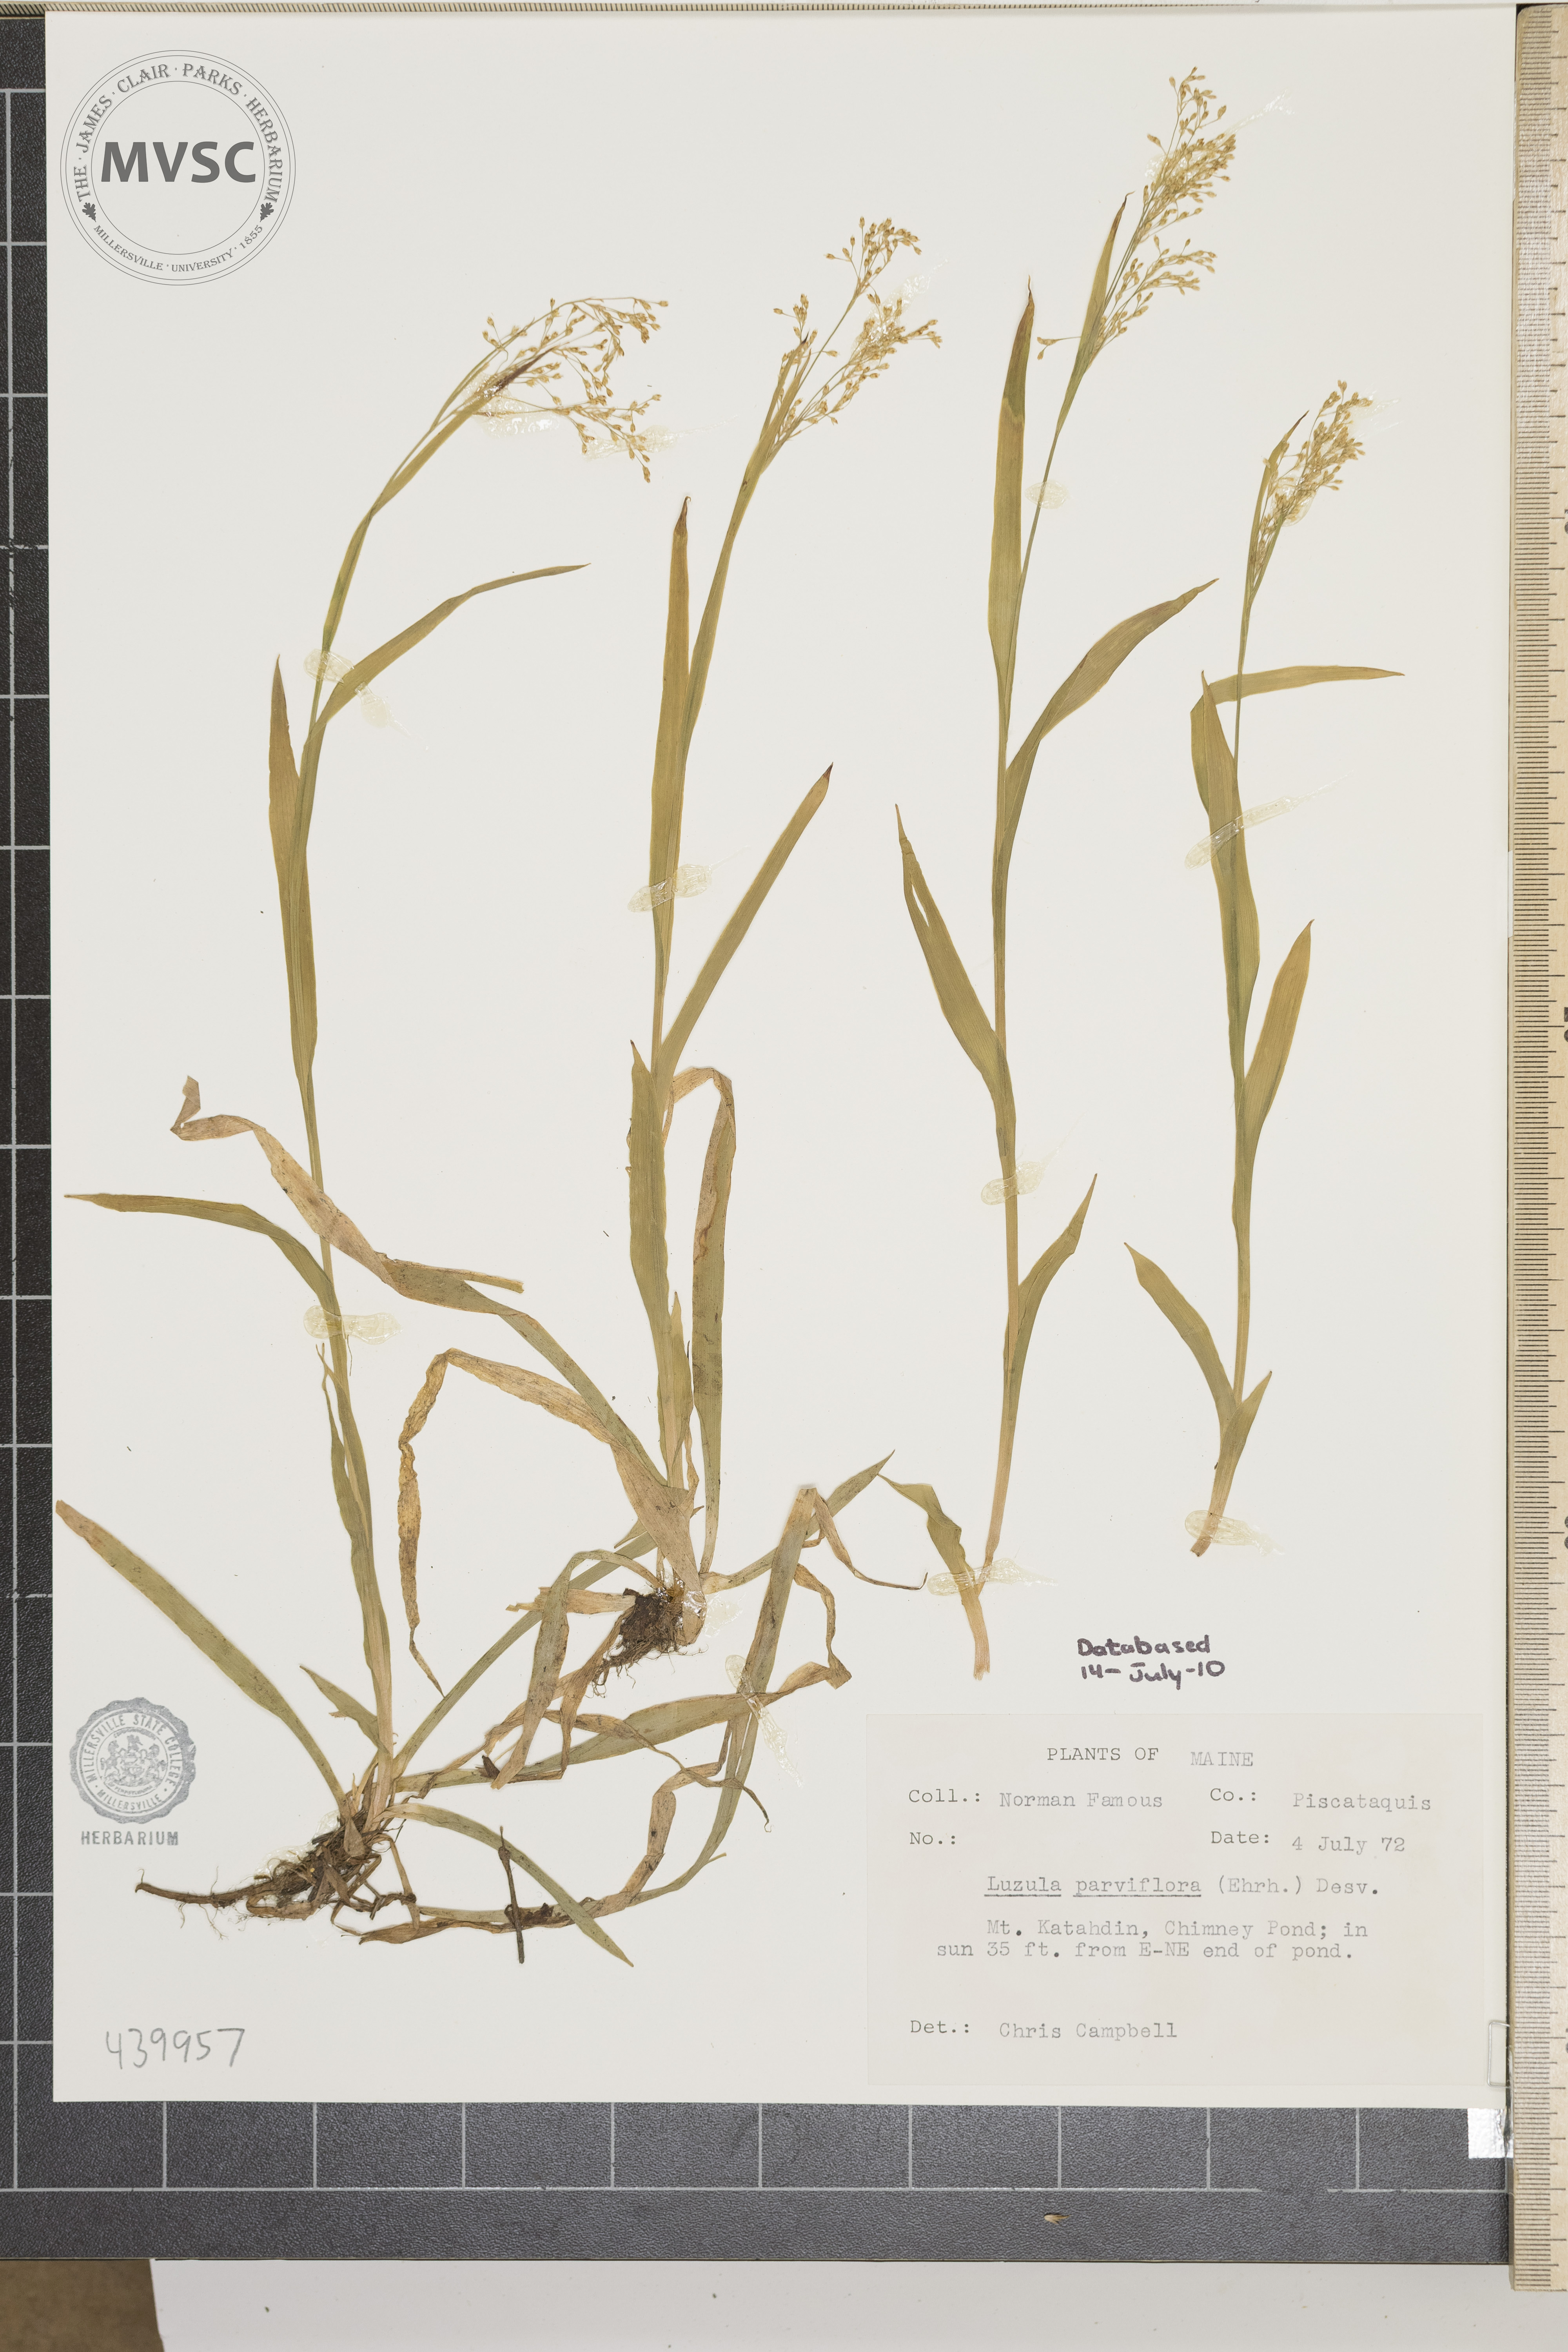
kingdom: Plantae
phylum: Tracheophyta
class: Liliopsida
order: Poales
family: Juncaceae
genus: Luzula
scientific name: Luzula parviflora
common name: Millet woodrush
